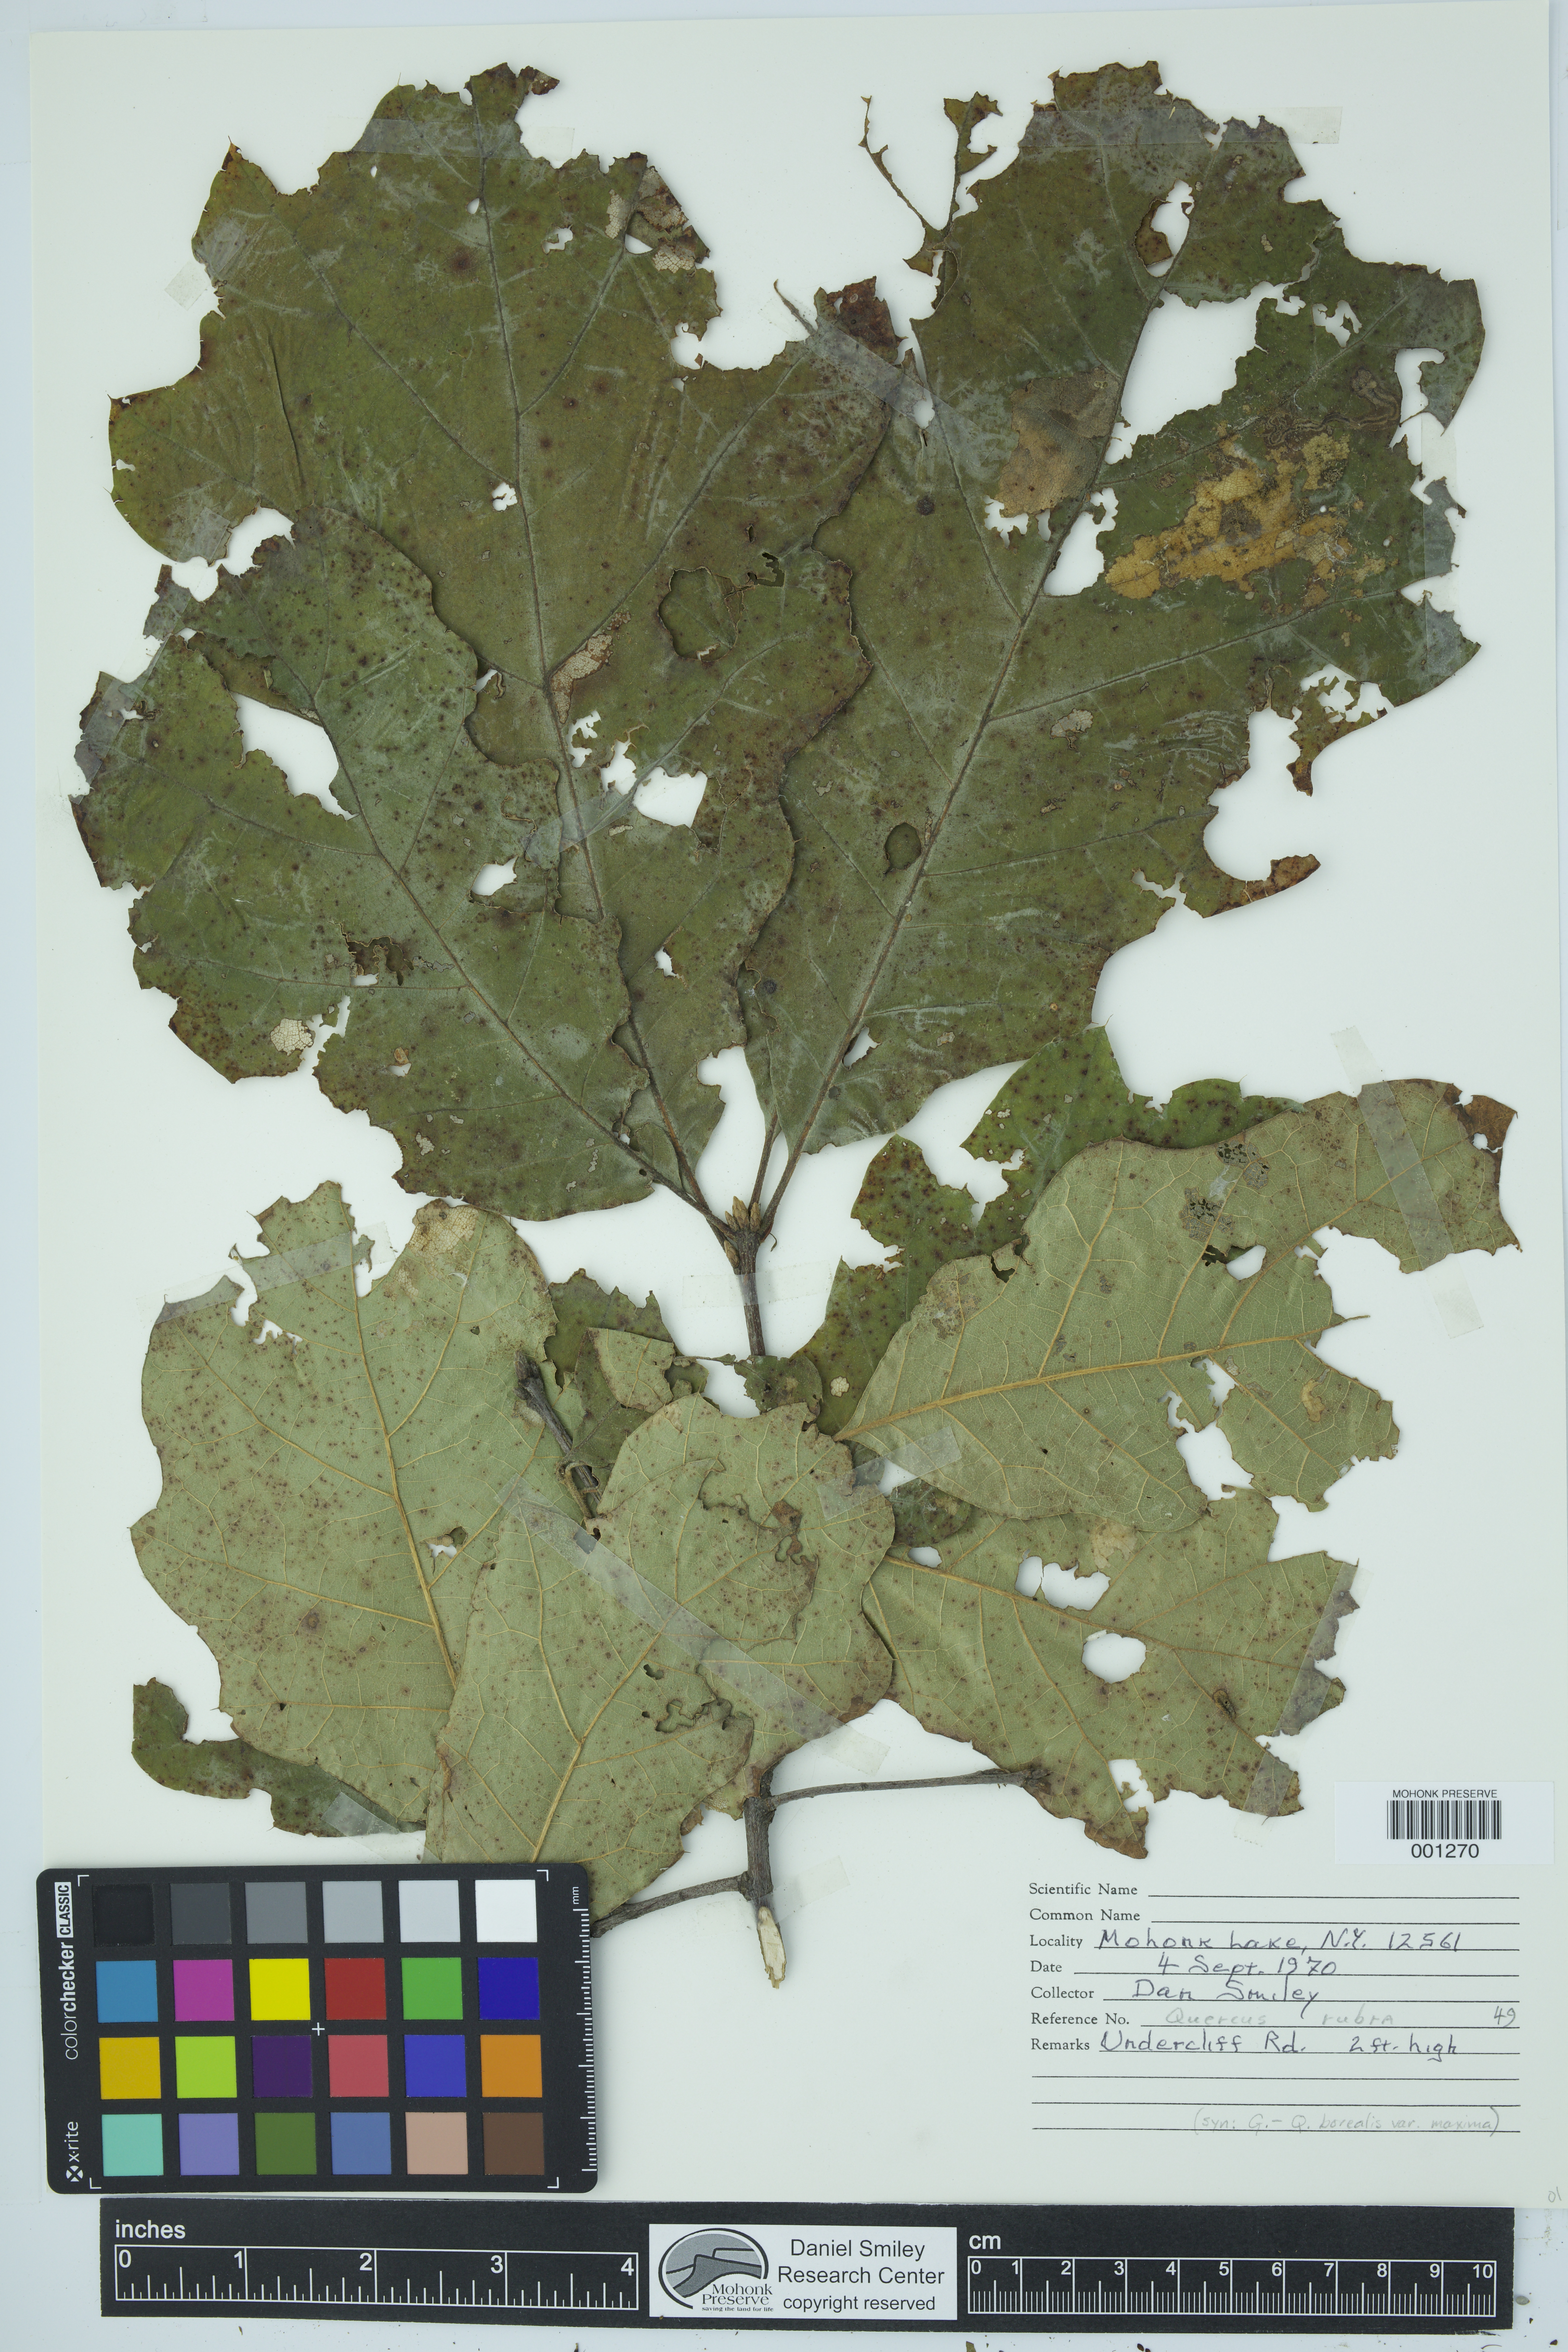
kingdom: Plantae
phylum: Tracheophyta
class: Magnoliopsida
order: Fagales
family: Fagaceae
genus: Quercus
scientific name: Quercus rubra
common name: Red oak
